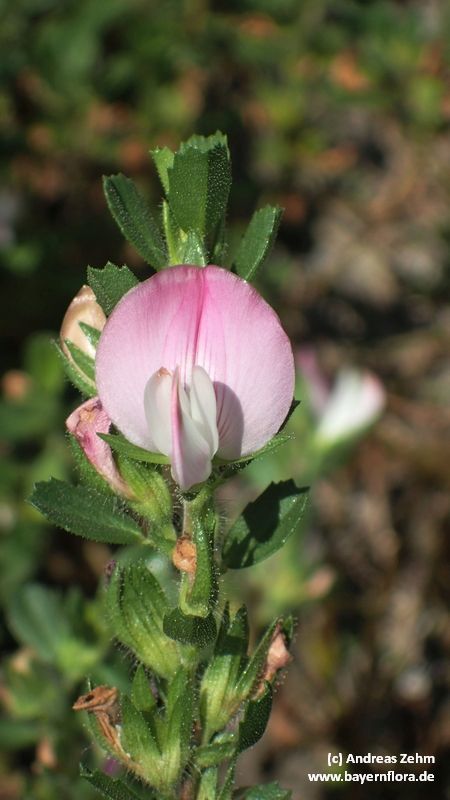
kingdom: Plantae
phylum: Tracheophyta
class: Magnoliopsida
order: Fabales
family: Fabaceae
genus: Ononis
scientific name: Ononis spinosa
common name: Spiny restharrow
